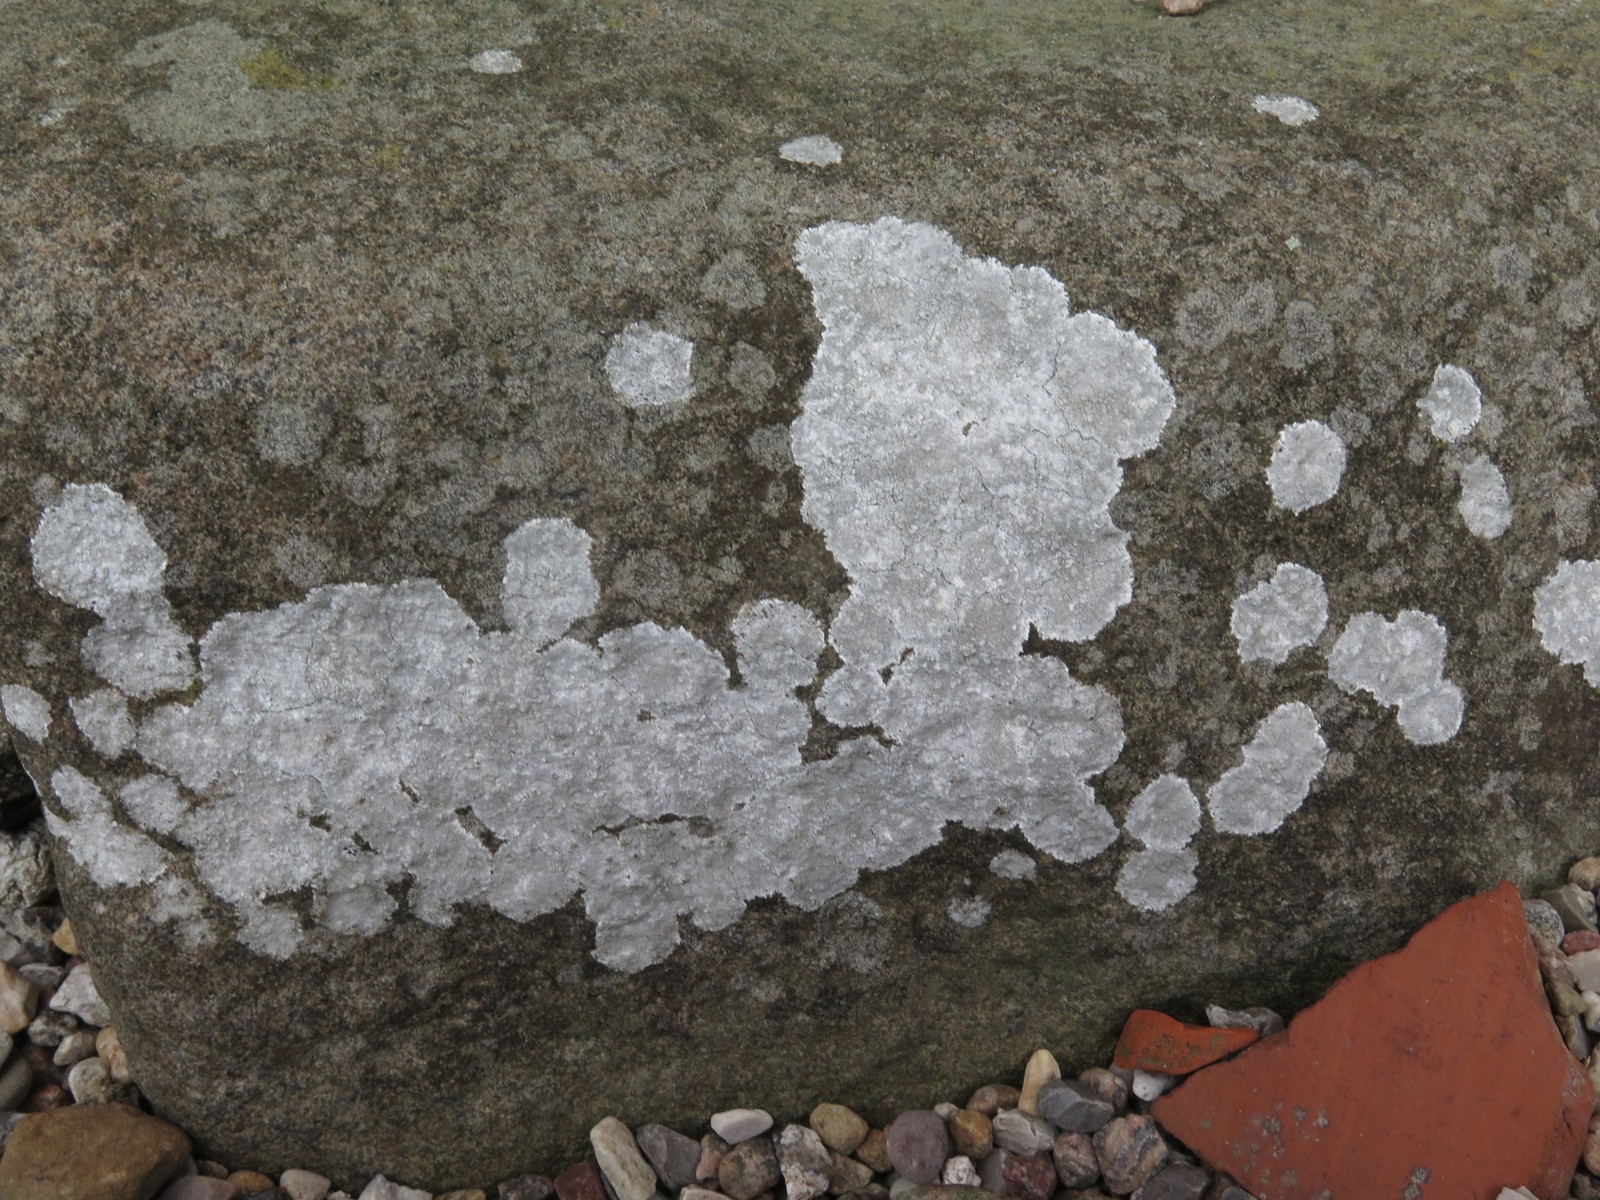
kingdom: Fungi
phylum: Ascomycota
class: Lecanoromycetes
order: Lecanorales
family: Lecanoraceae
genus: Glaucomaria
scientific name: Glaucomaria rupicola
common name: stengærde-kantskivelav
